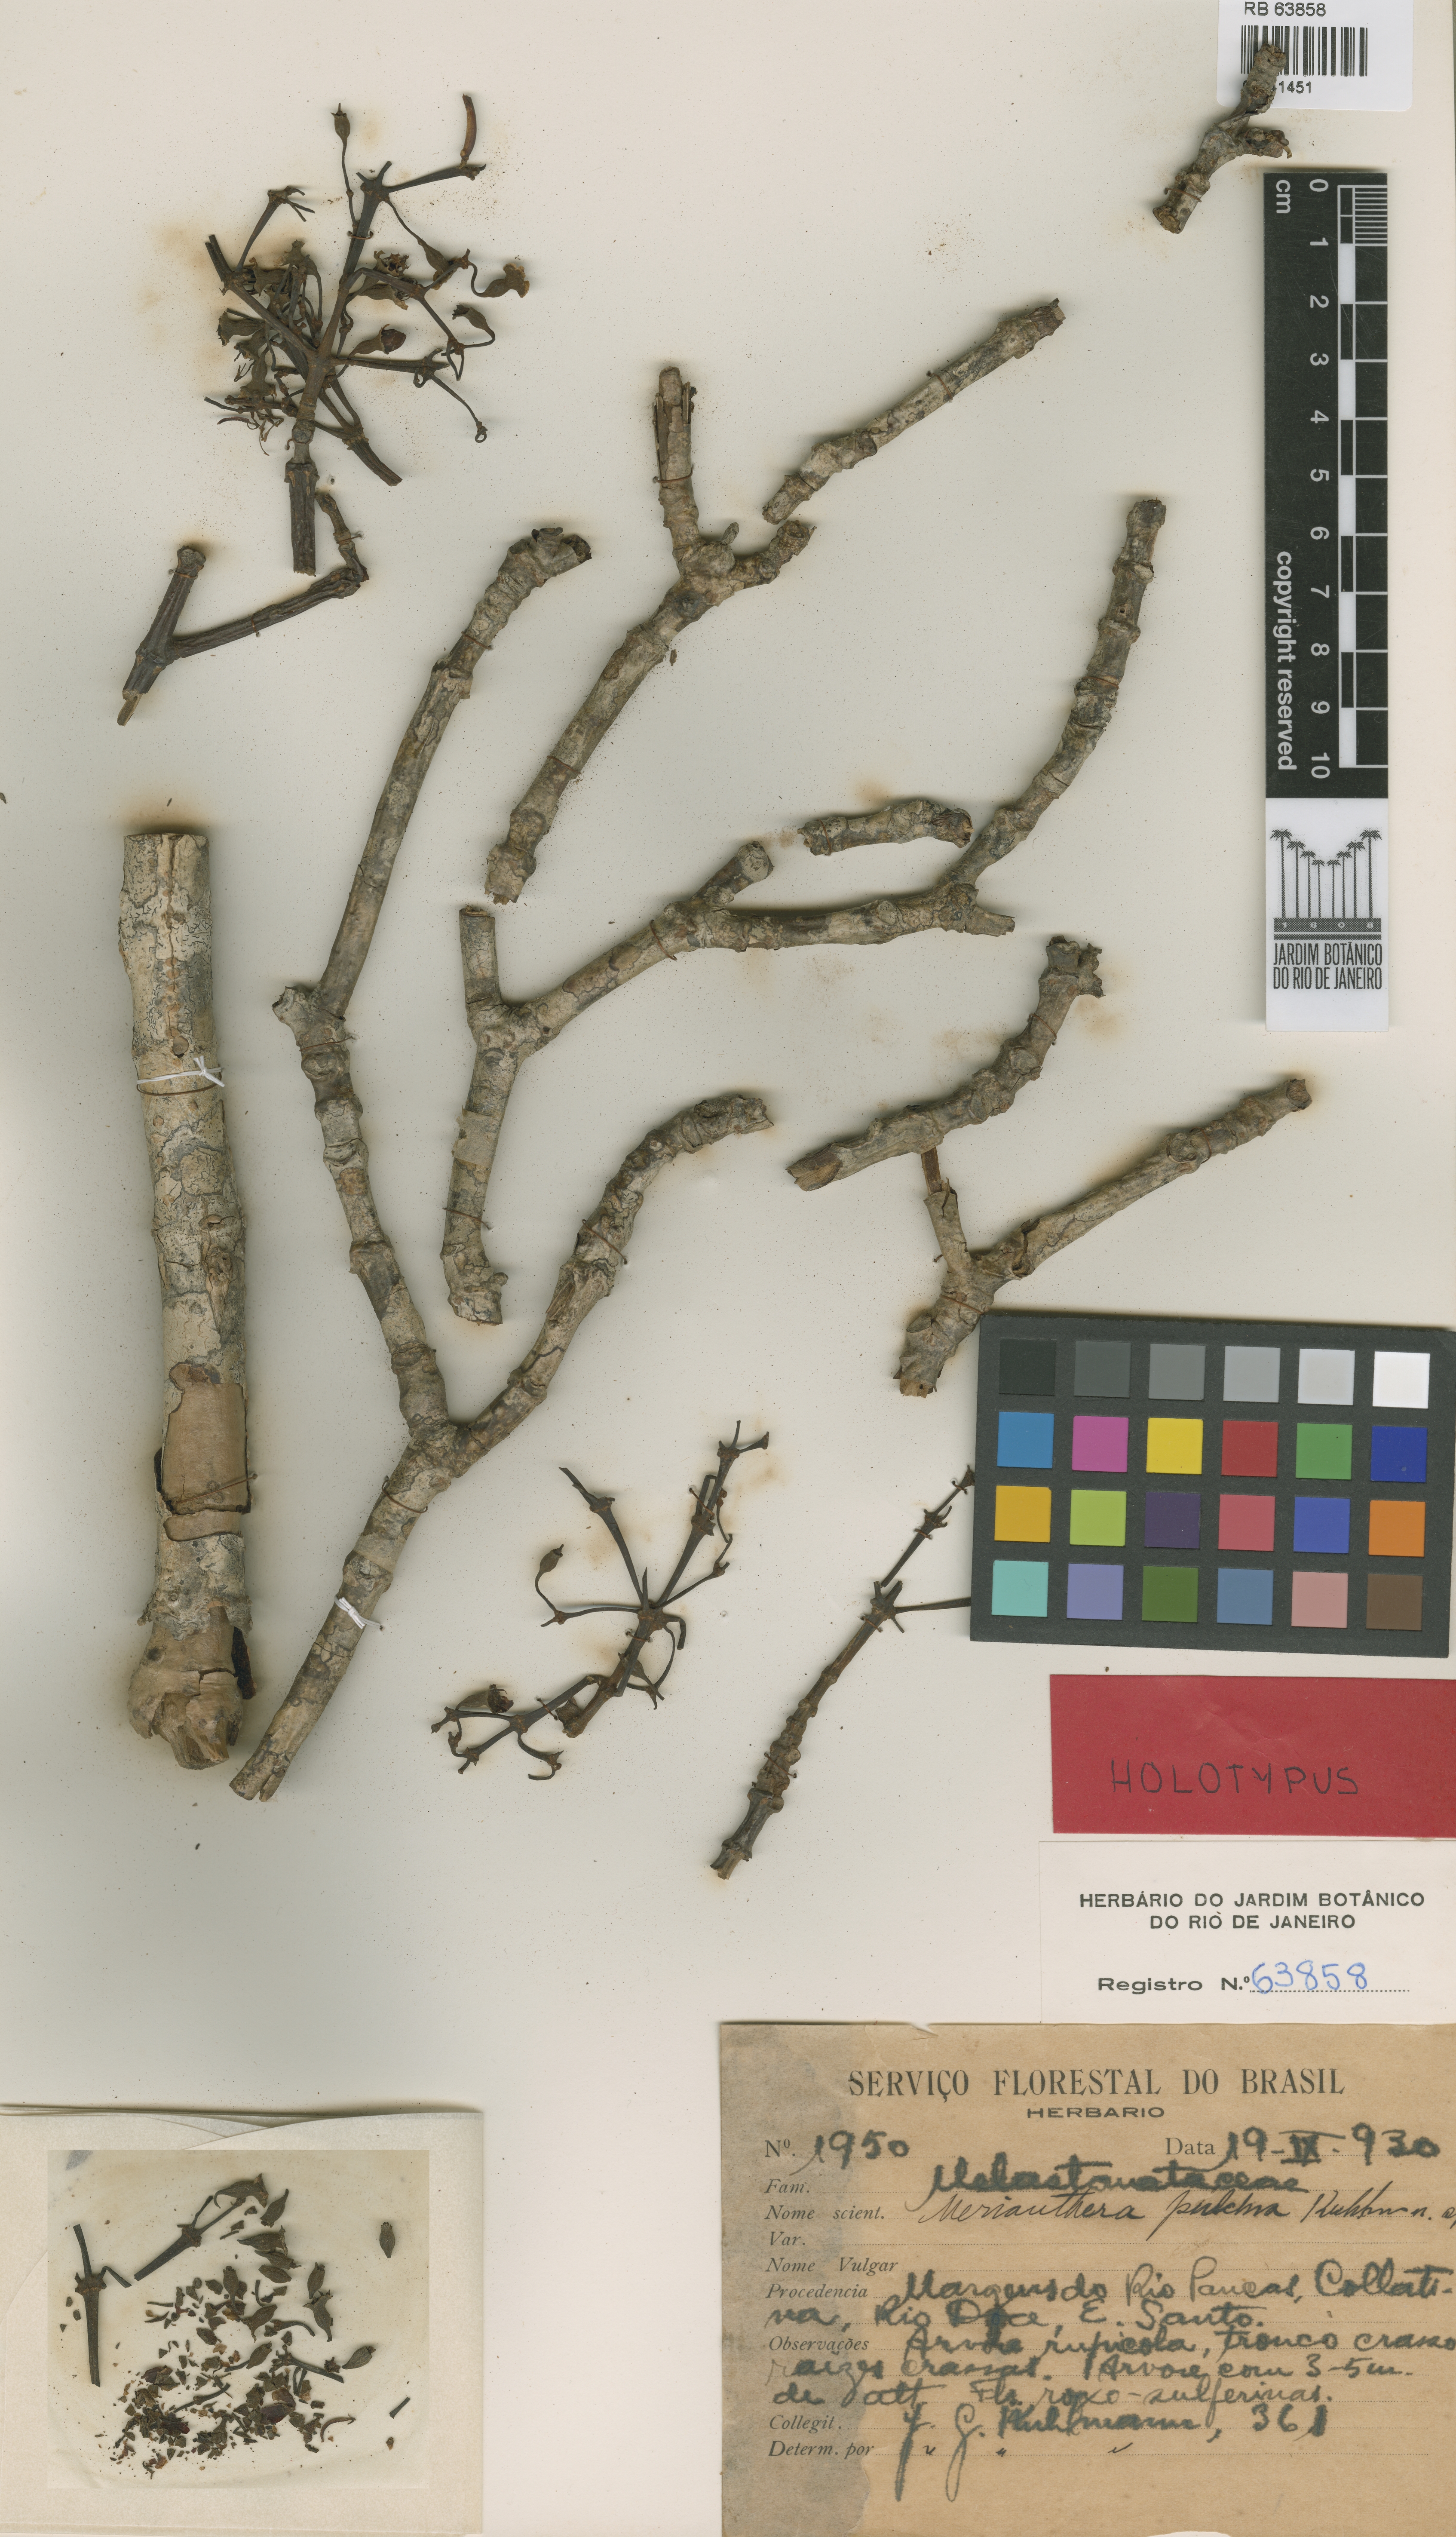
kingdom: Plantae
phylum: Tracheophyta
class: Magnoliopsida
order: Myrtales
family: Melastomataceae
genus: Merianthera
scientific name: Merianthera pulchra
